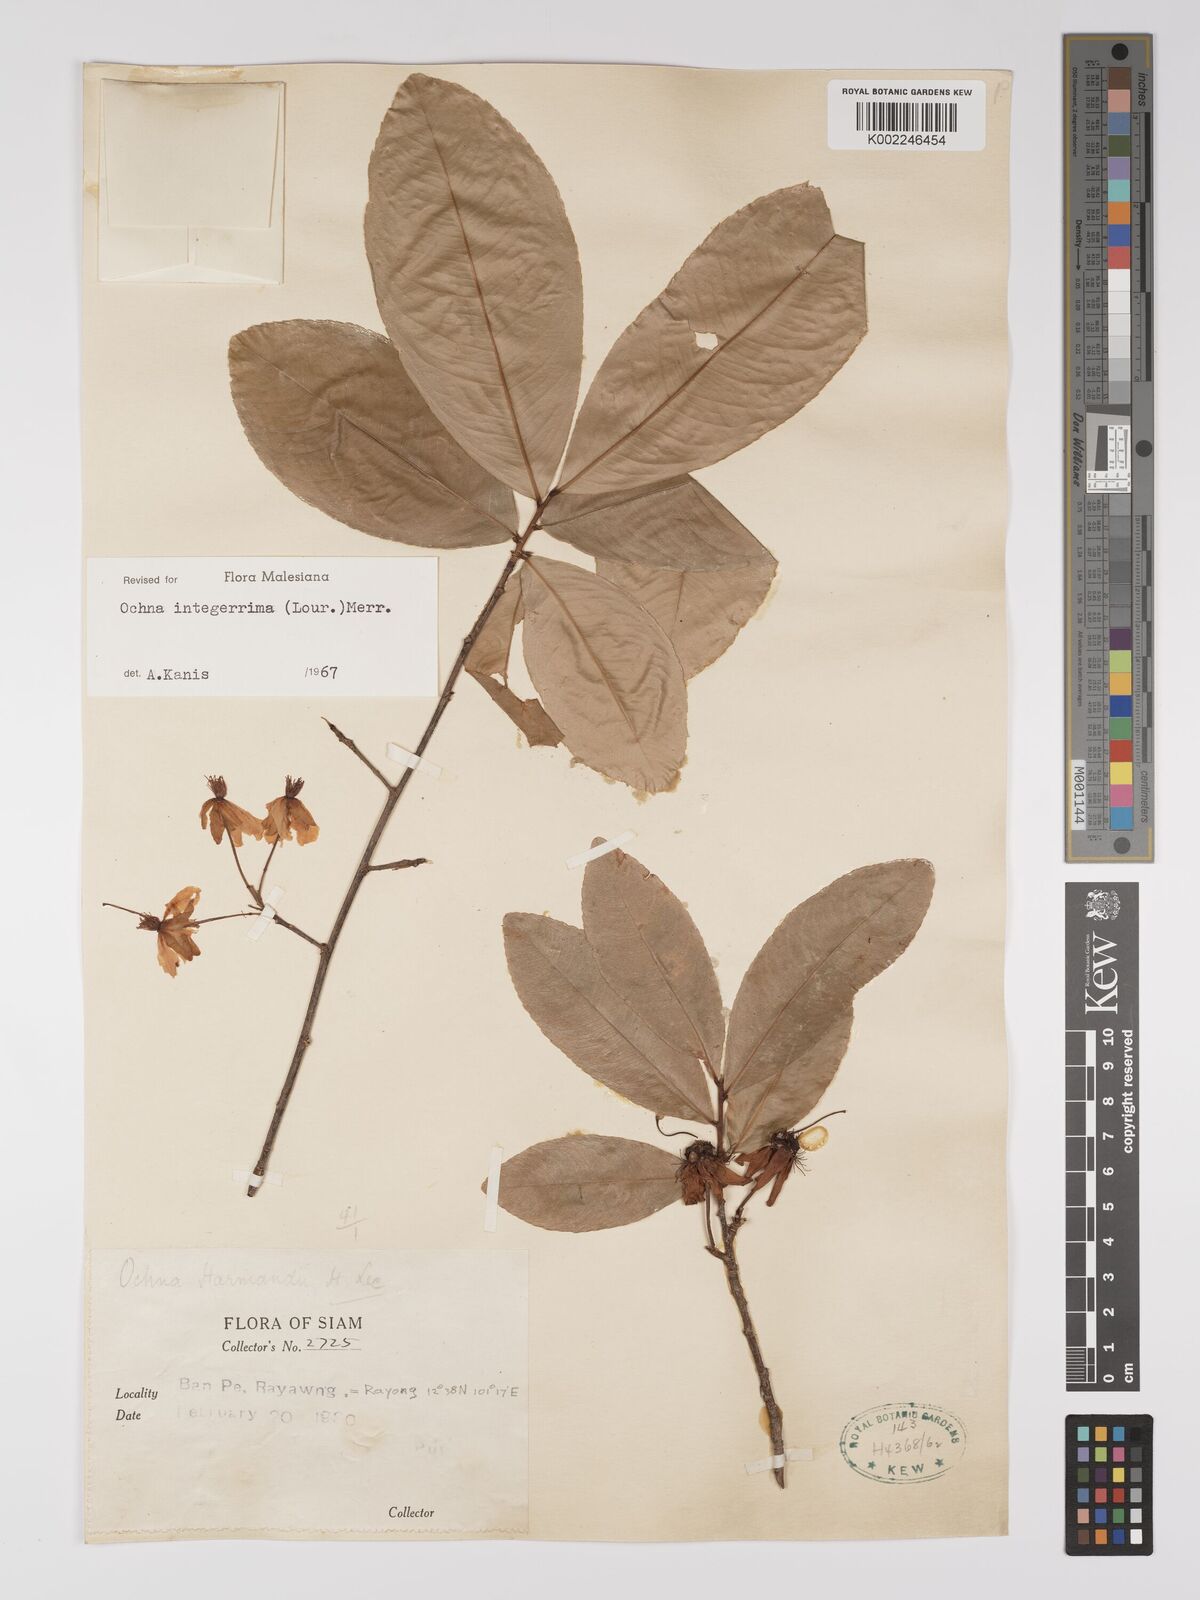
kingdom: Plantae
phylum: Tracheophyta
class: Magnoliopsida
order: Malpighiales
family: Ochnaceae
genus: Ochna
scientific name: Ochna integerrima
